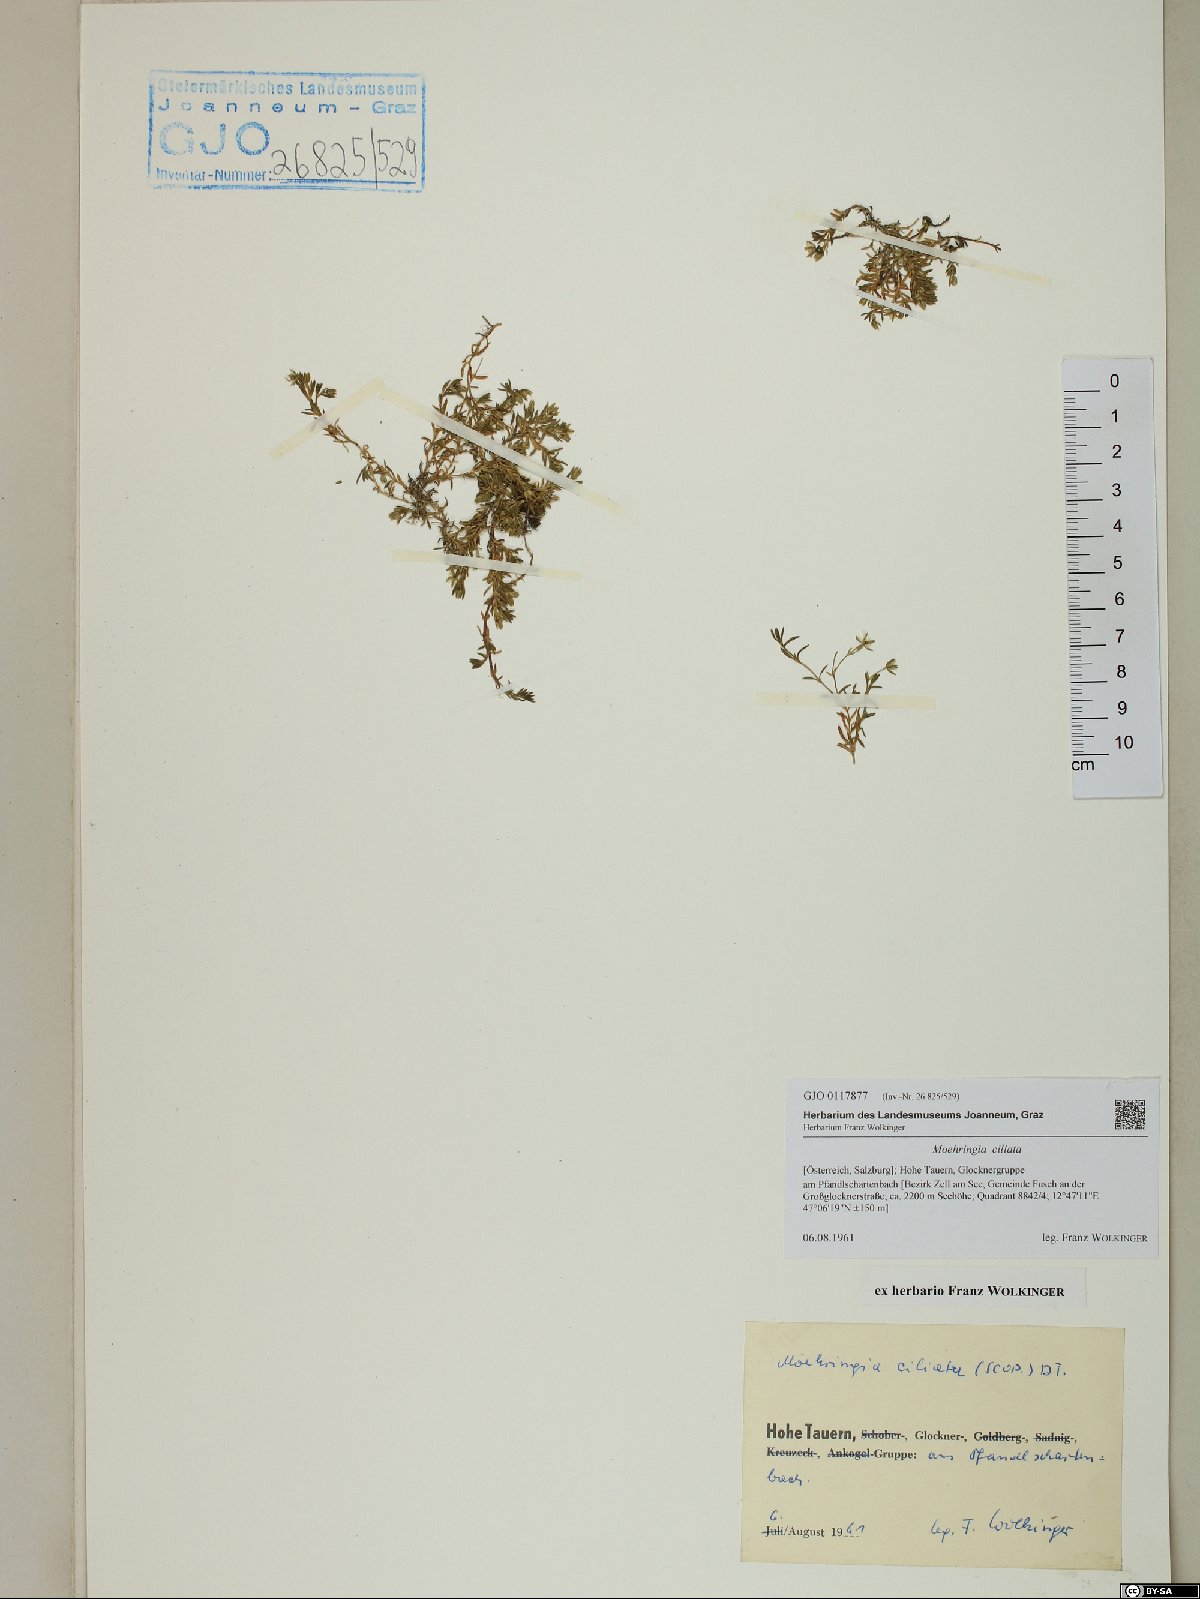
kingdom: Plantae
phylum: Tracheophyta
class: Magnoliopsida
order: Caryophyllales
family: Caryophyllaceae
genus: Moehringia
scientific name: Moehringia ciliata
